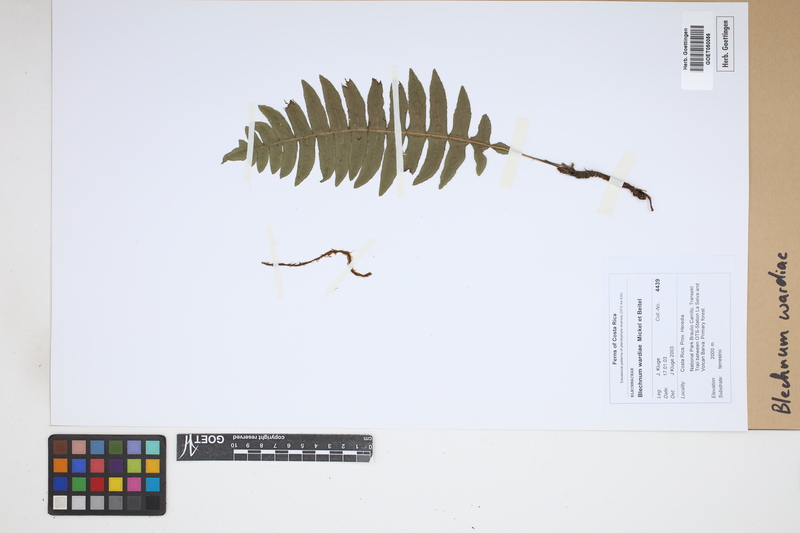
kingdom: Plantae
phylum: Tracheophyta
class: Polypodiopsida
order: Polypodiales
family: Blechnaceae
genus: Austroblechnum
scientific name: Austroblechnum wardiae
